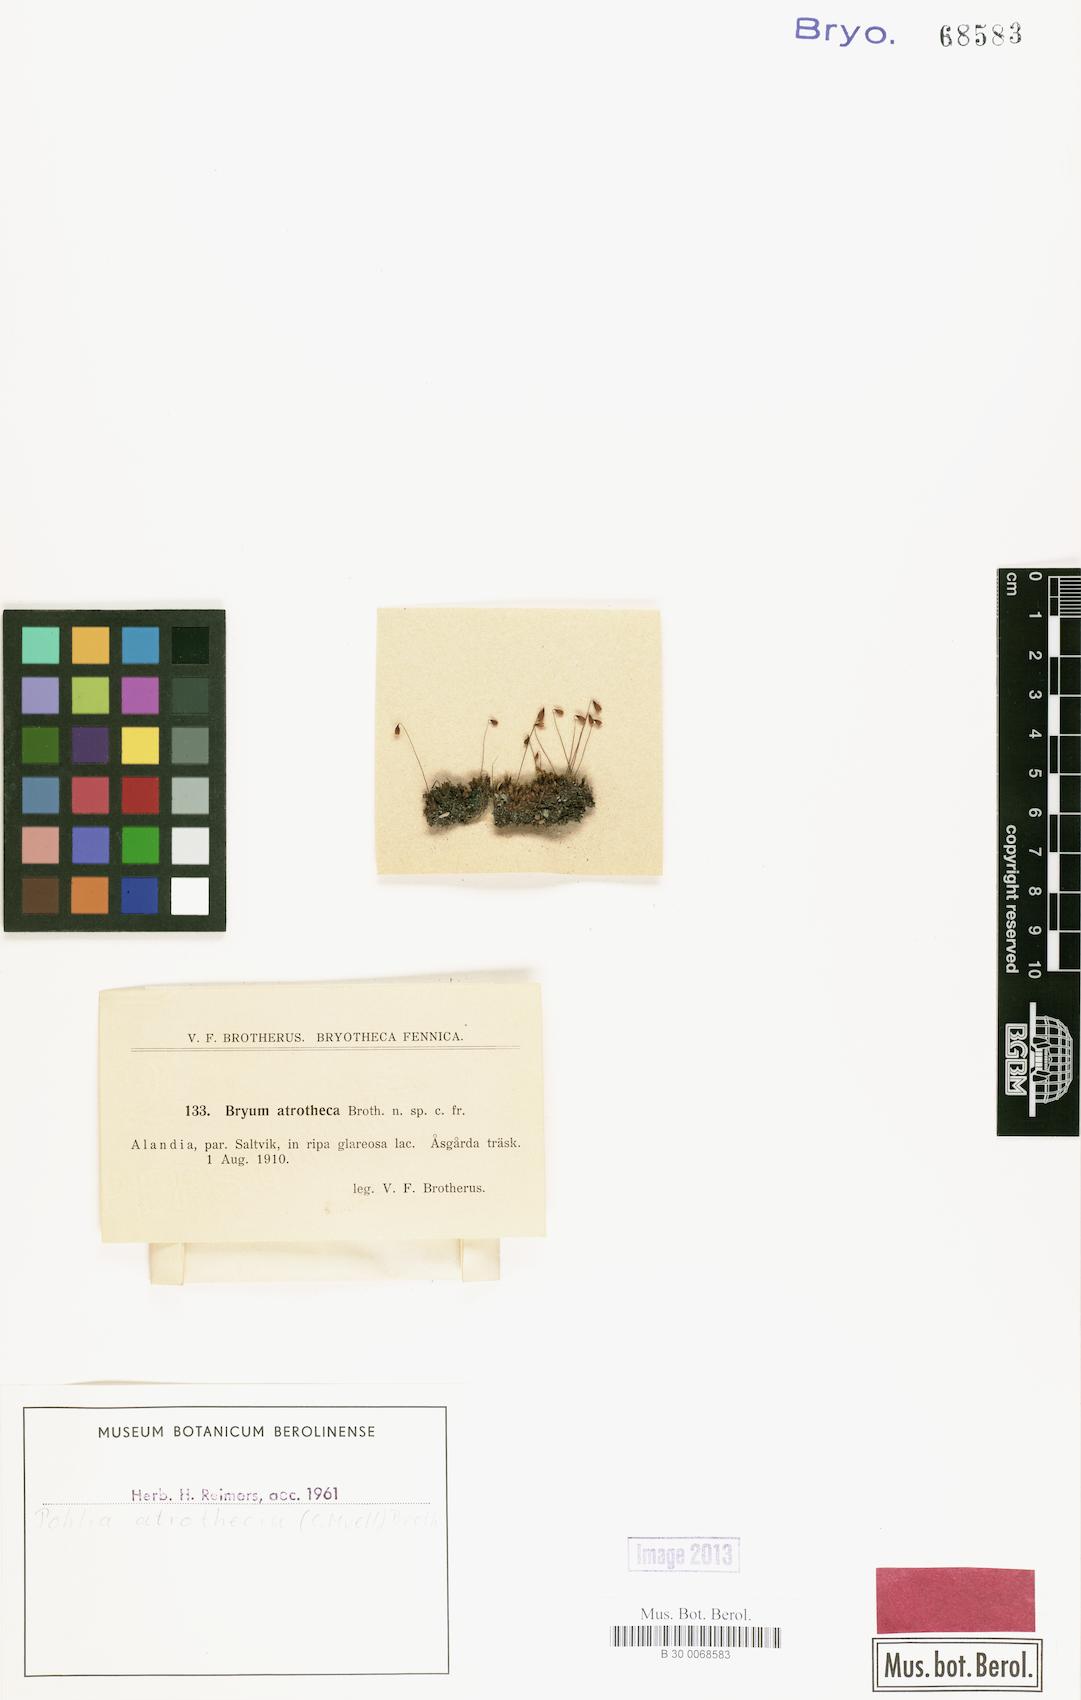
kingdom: Plantae
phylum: Bryophyta
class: Bryopsida
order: Bryales
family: Mniaceae
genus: Pohlia
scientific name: Pohlia atrothecia
